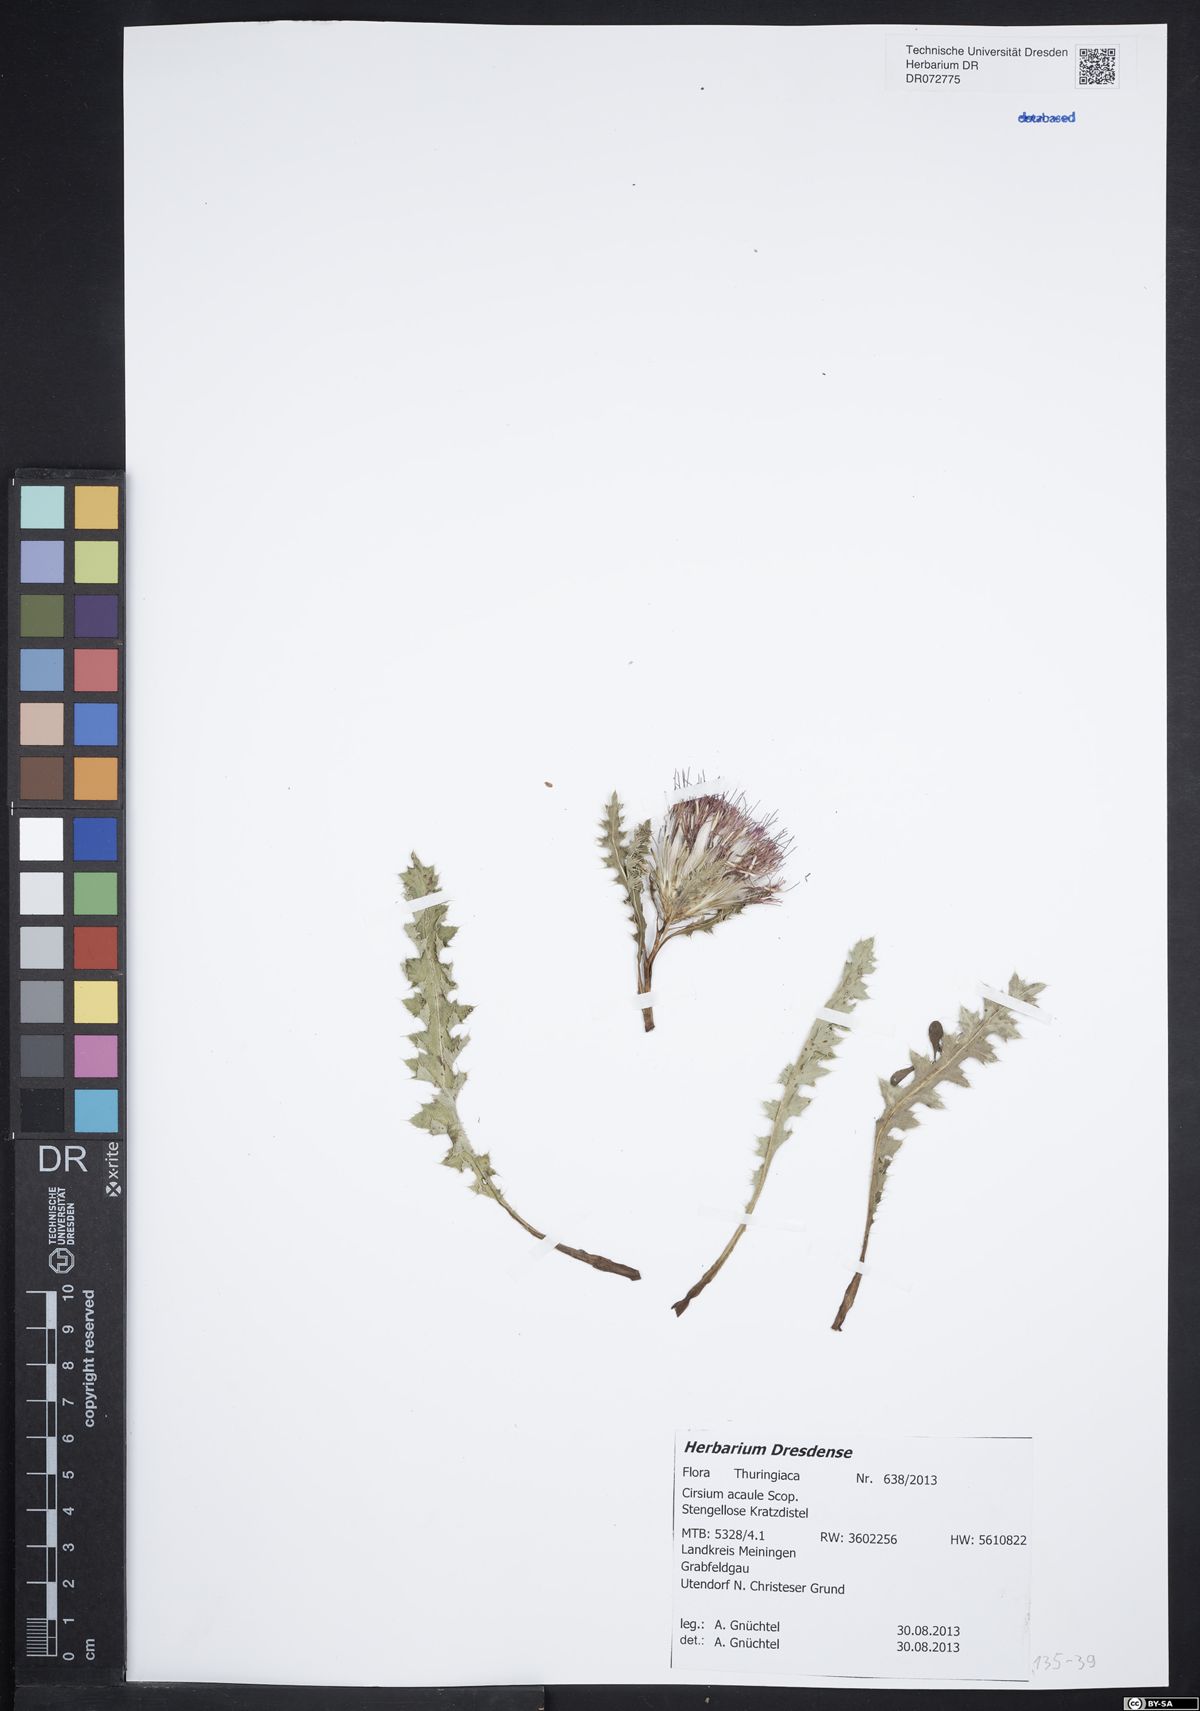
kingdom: Plantae
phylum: Tracheophyta
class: Magnoliopsida
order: Asterales
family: Asteraceae
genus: Cirsium
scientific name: Cirsium acaule
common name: Dwarf thistle
